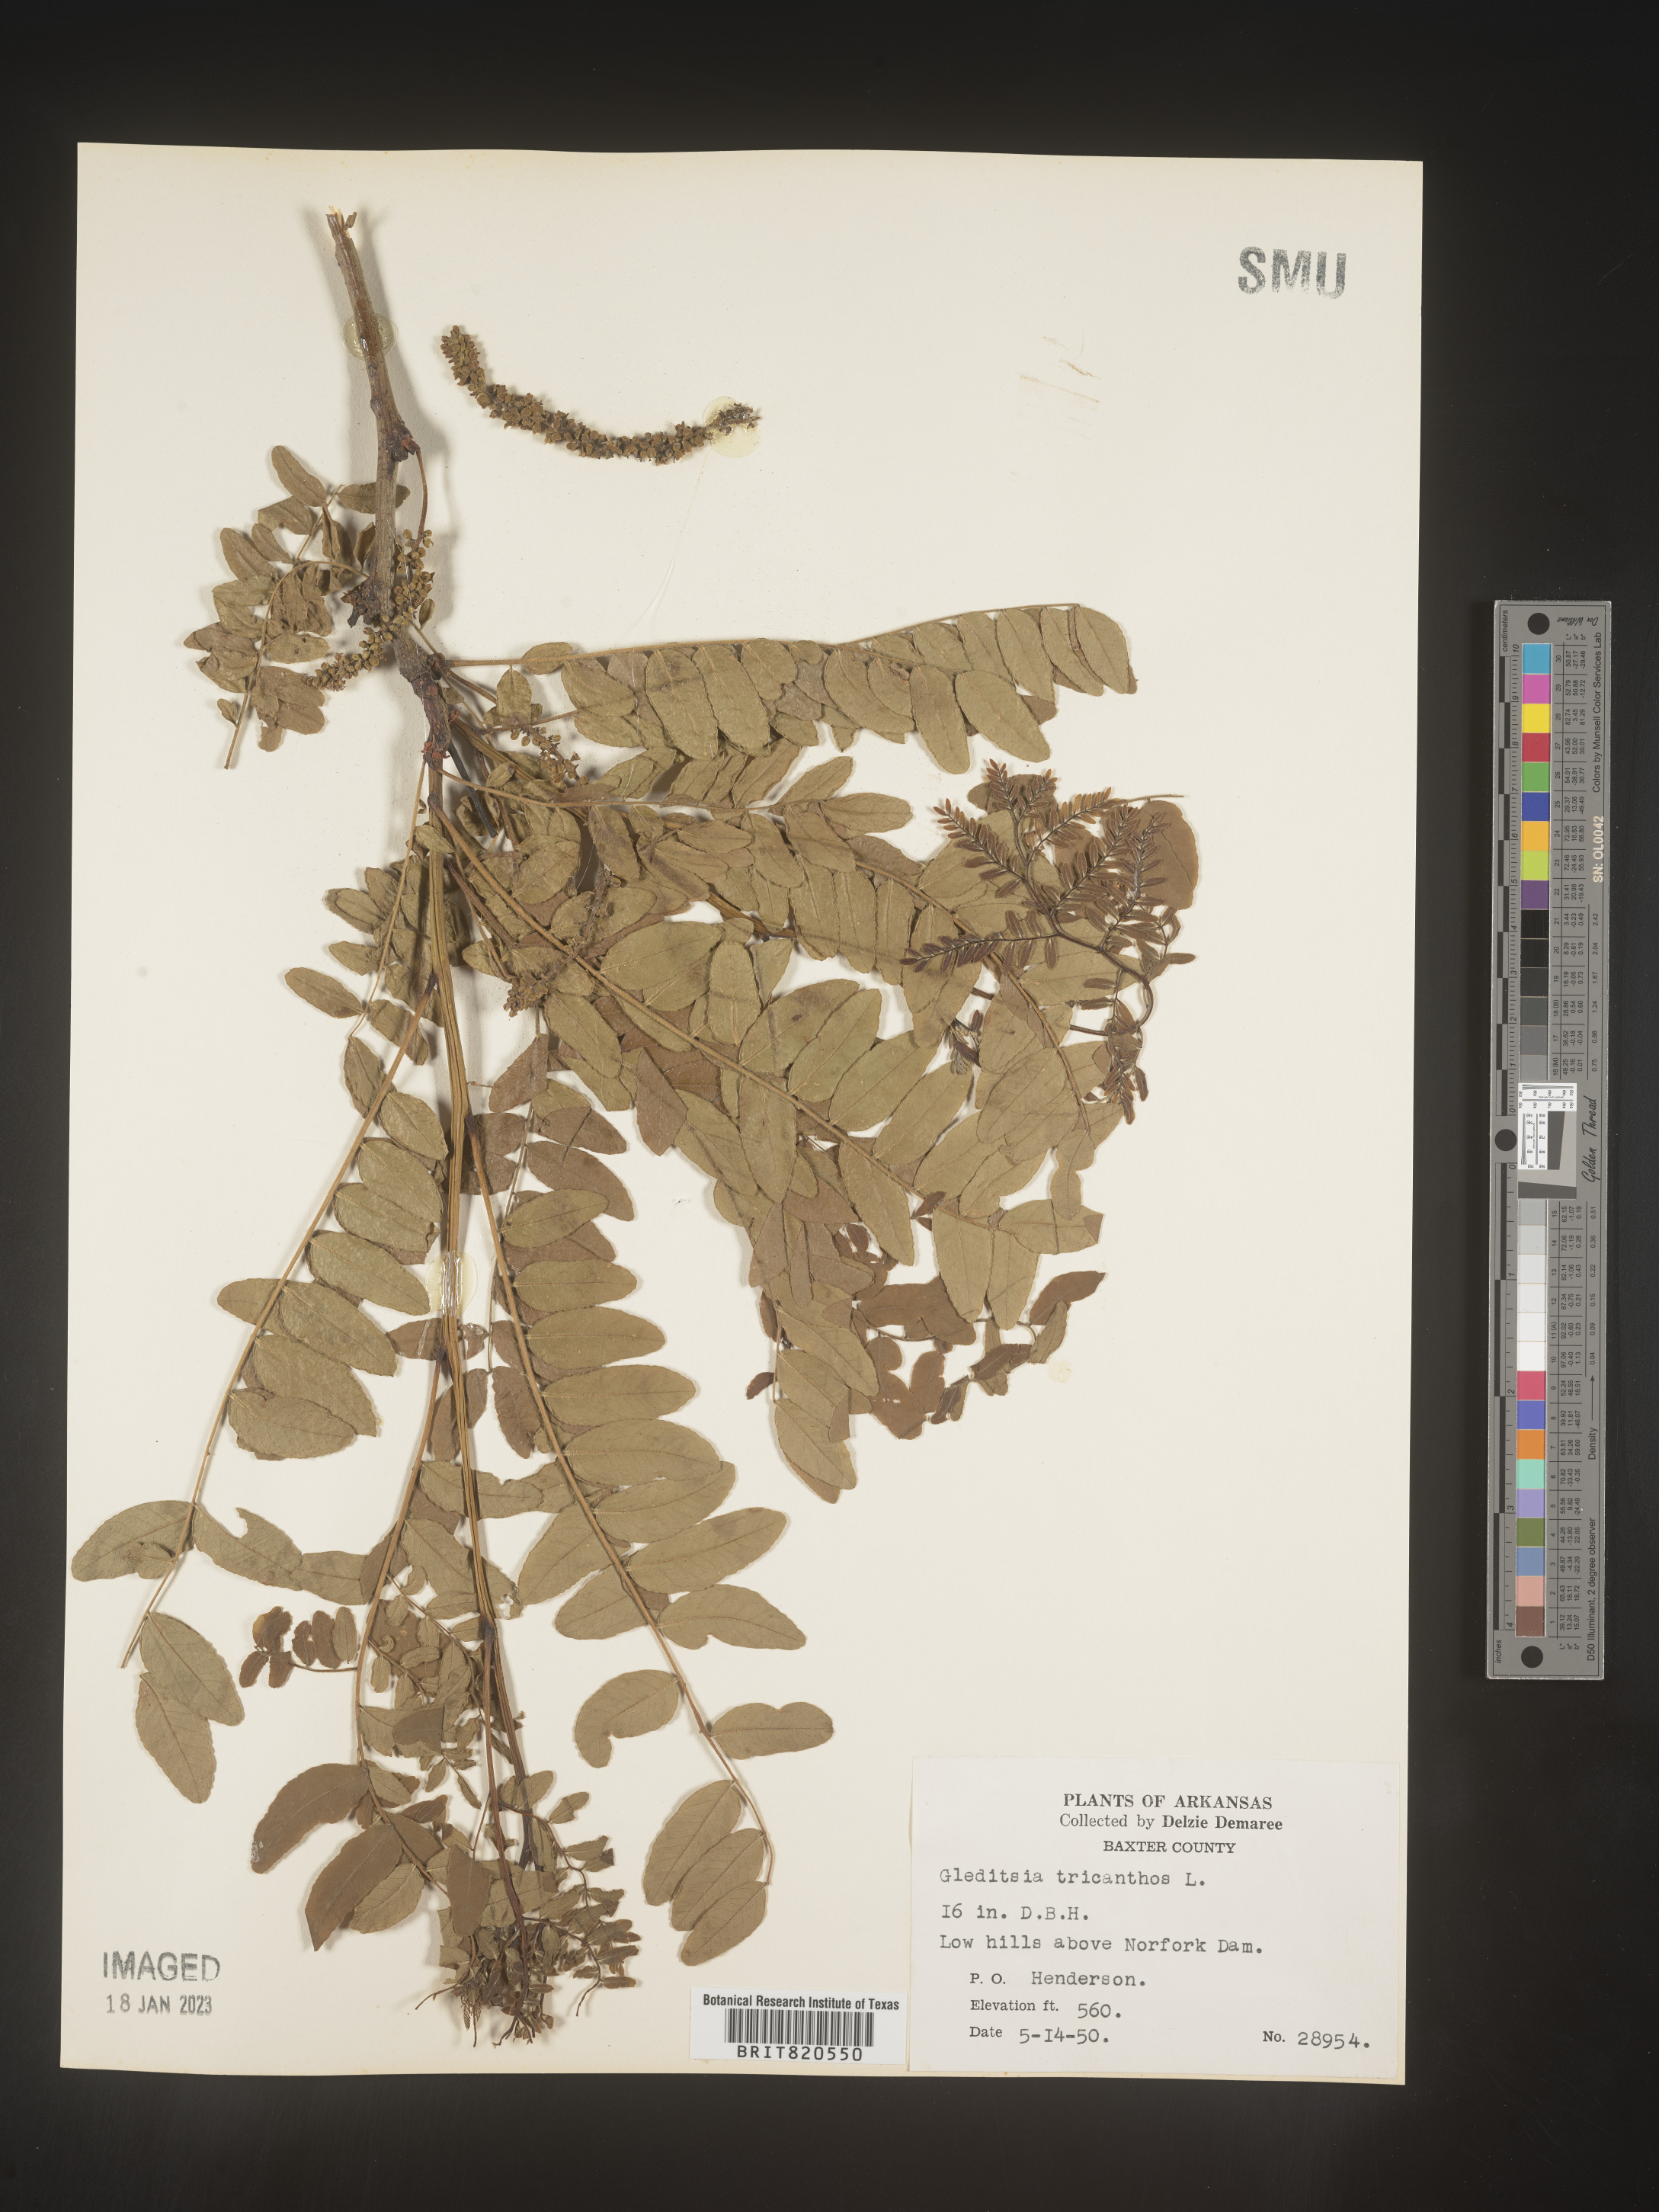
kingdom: Plantae
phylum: Tracheophyta
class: Magnoliopsida
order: Fabales
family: Fabaceae
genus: Gleditsia
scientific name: Gleditsia triacanthos
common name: Common honeylocust
